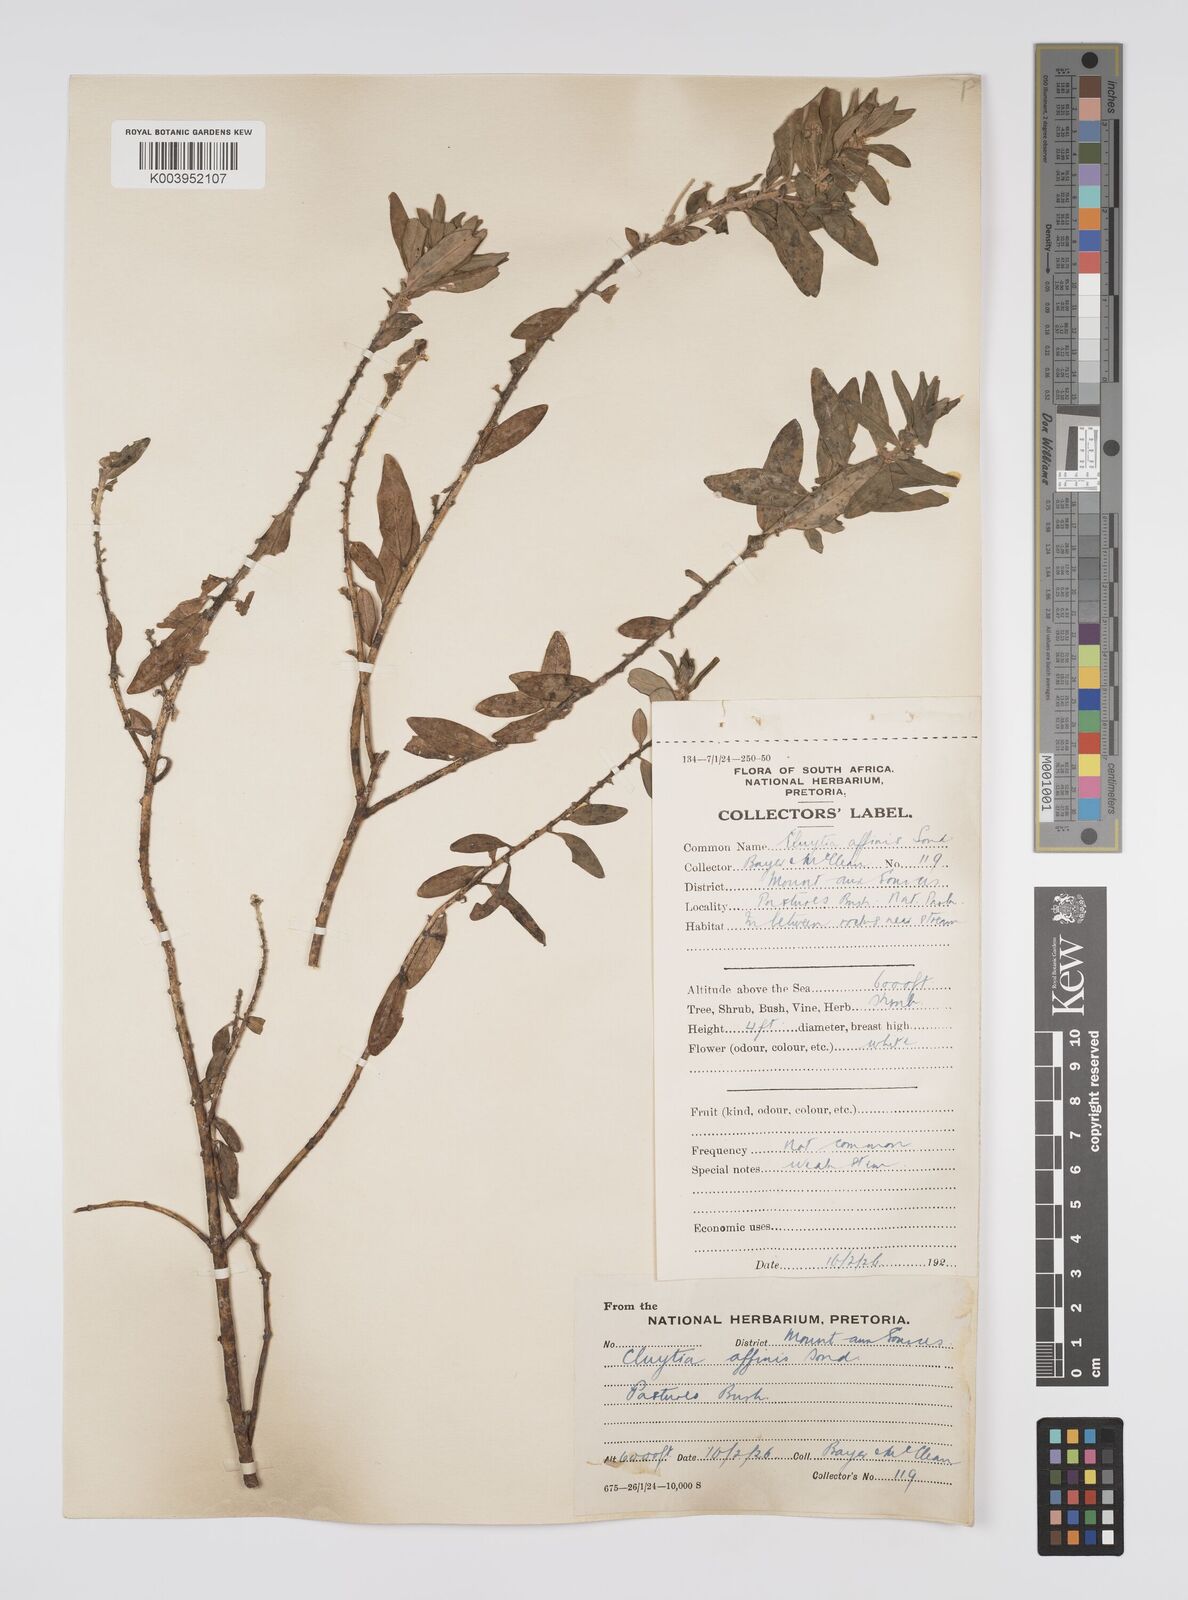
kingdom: Plantae
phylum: Tracheophyta
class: Magnoliopsida
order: Malpighiales
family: Peraceae
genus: Clutia
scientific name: Clutia affinis
